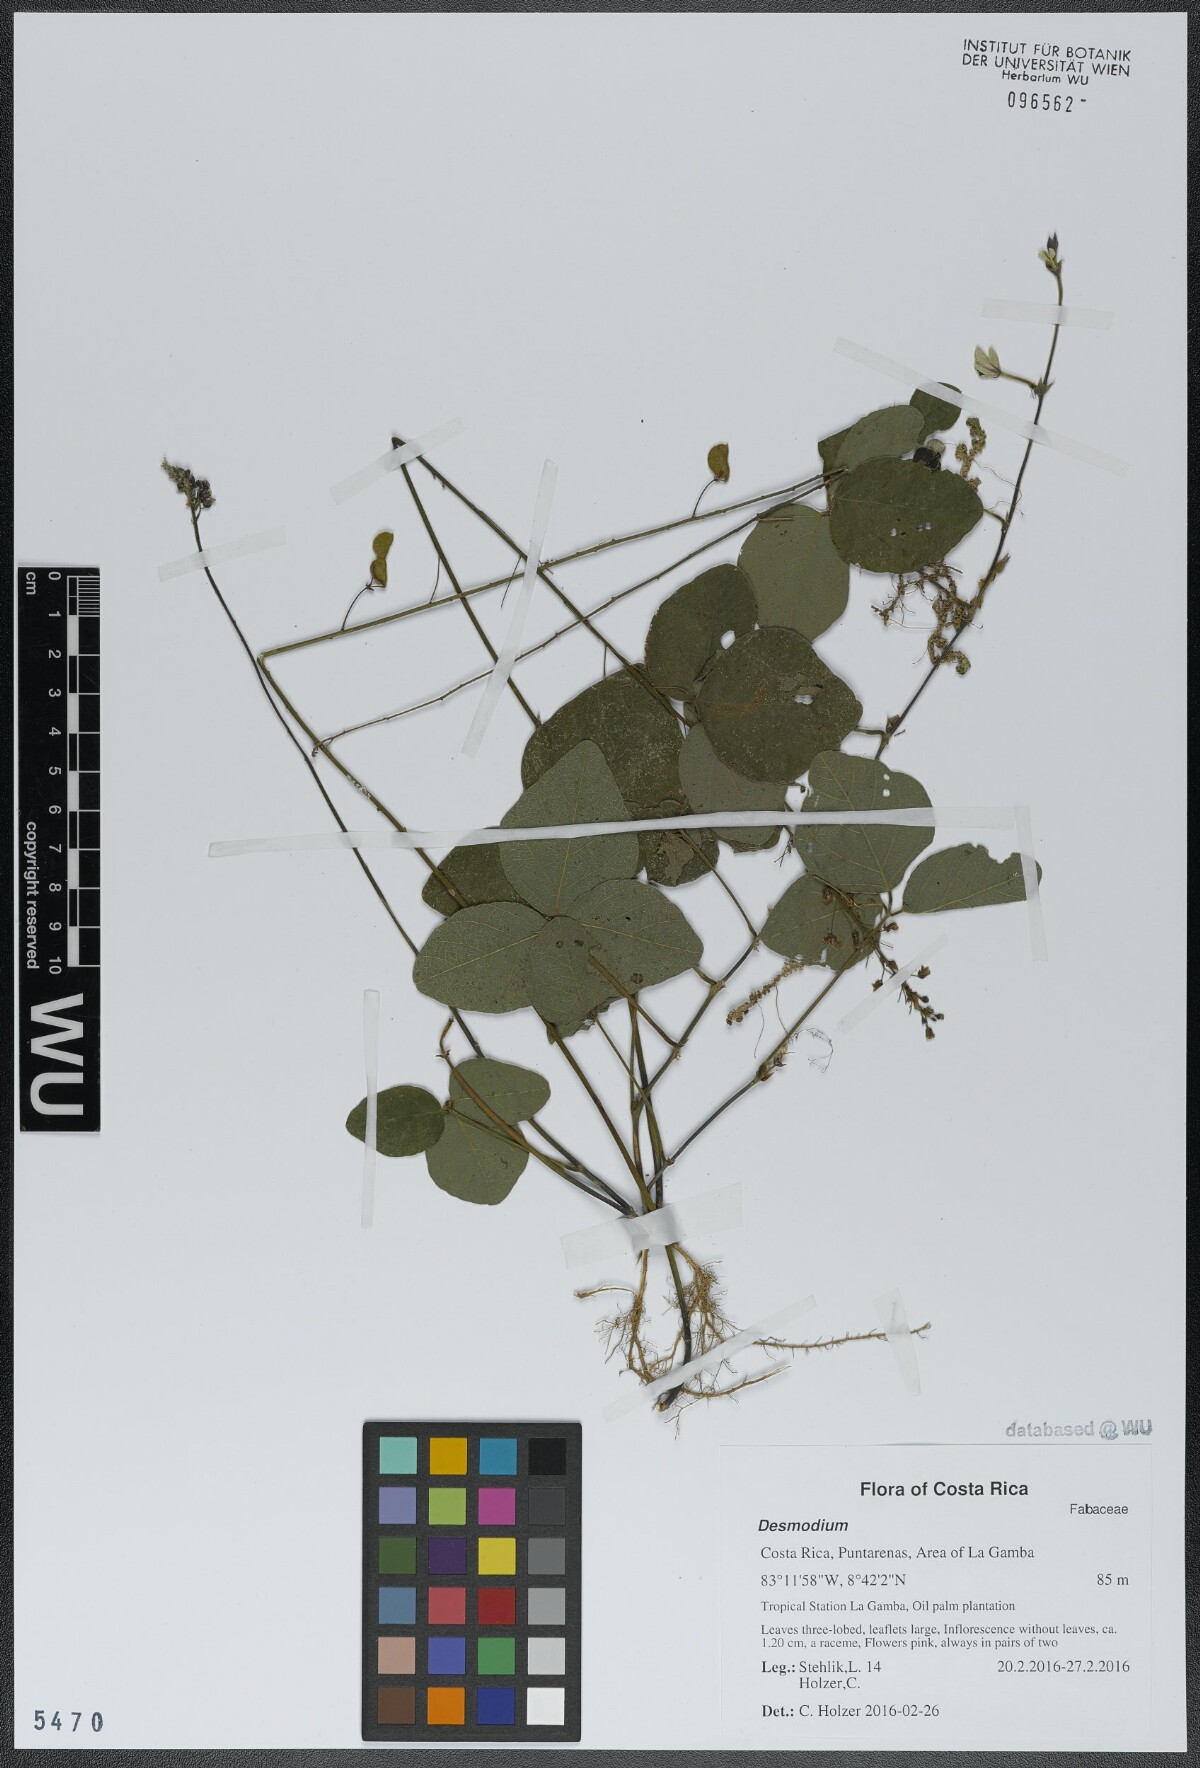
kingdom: Plantae
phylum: Tracheophyta
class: Magnoliopsida
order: Fabales
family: Fabaceae
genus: Desmodium
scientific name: Desmodium
